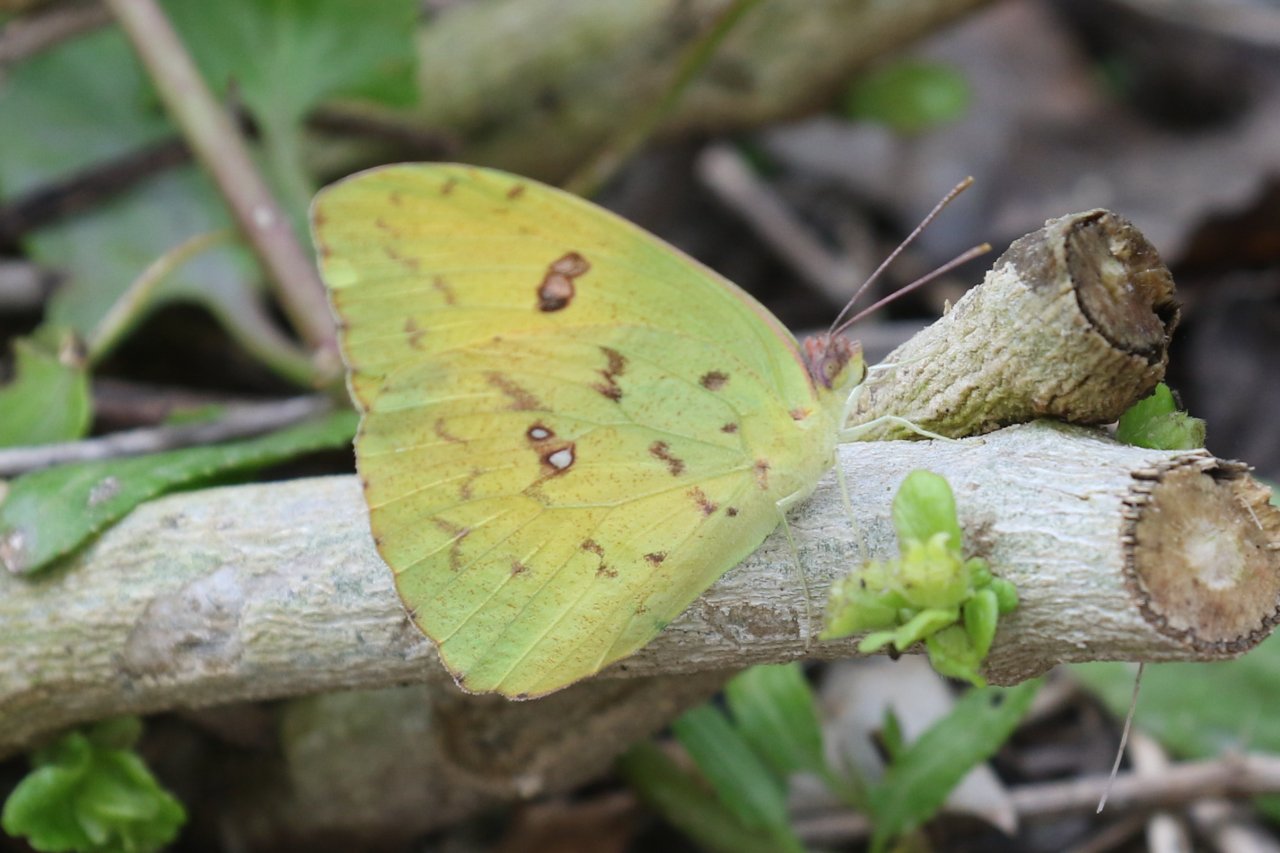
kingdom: Animalia
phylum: Arthropoda
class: Insecta
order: Lepidoptera
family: Pieridae
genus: Phoebis
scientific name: Phoebis sennae
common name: Cloudless Sulphur
